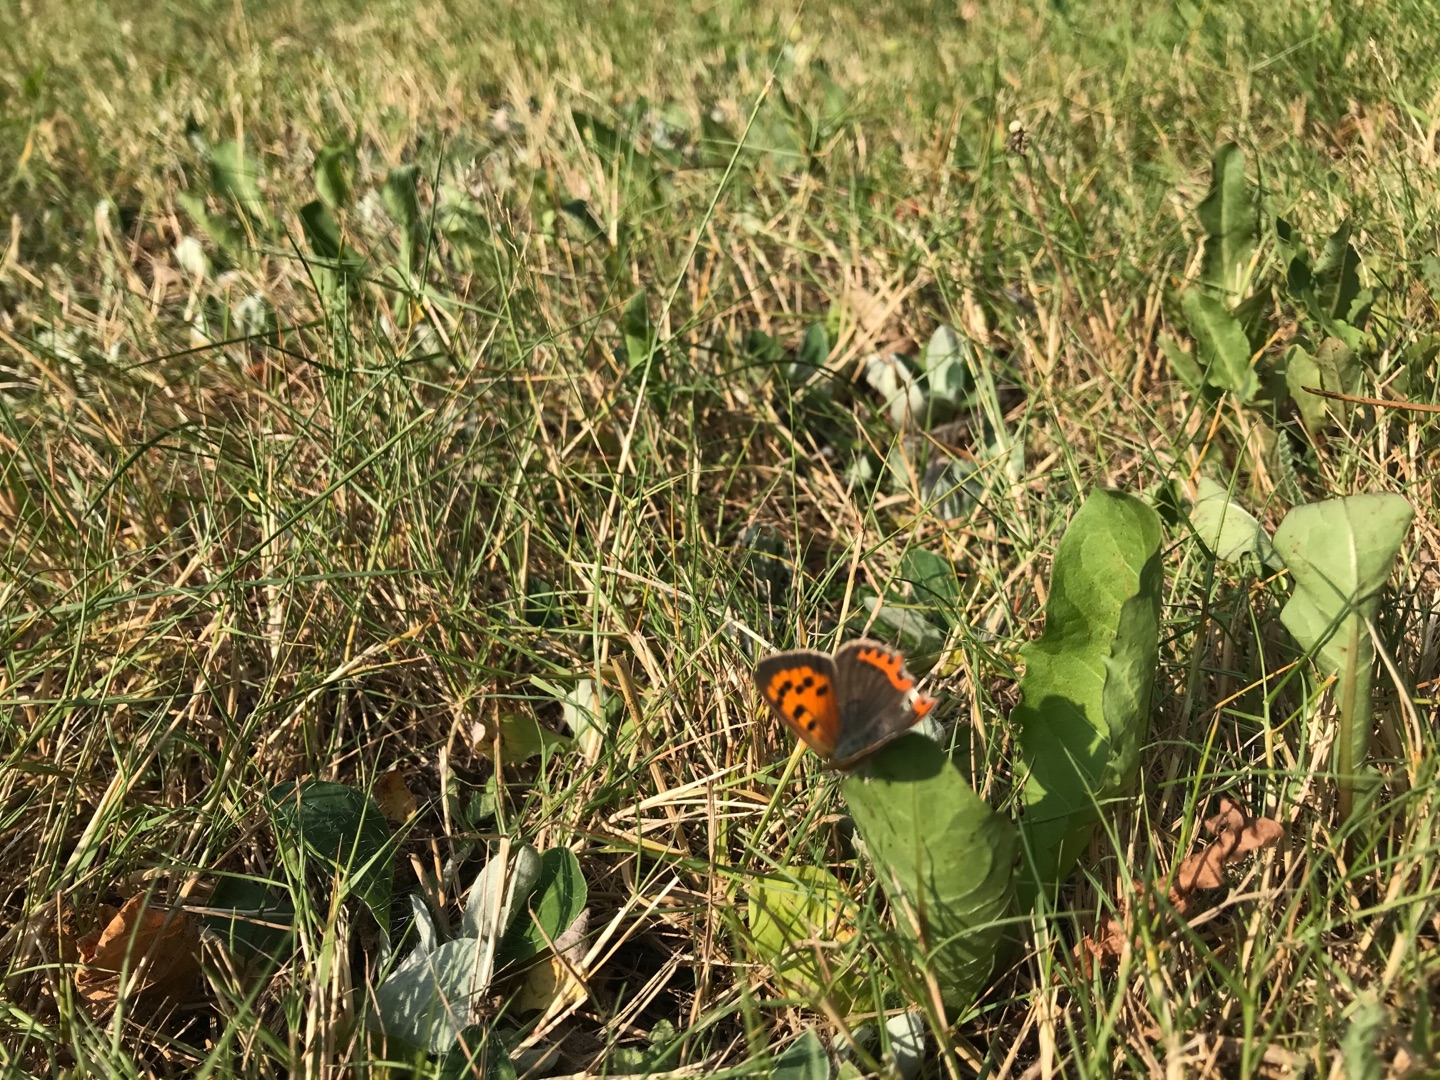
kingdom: Animalia
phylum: Arthropoda
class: Insecta
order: Lepidoptera
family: Lycaenidae
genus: Lycaena
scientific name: Lycaena phlaeas
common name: Lille ildfugl
